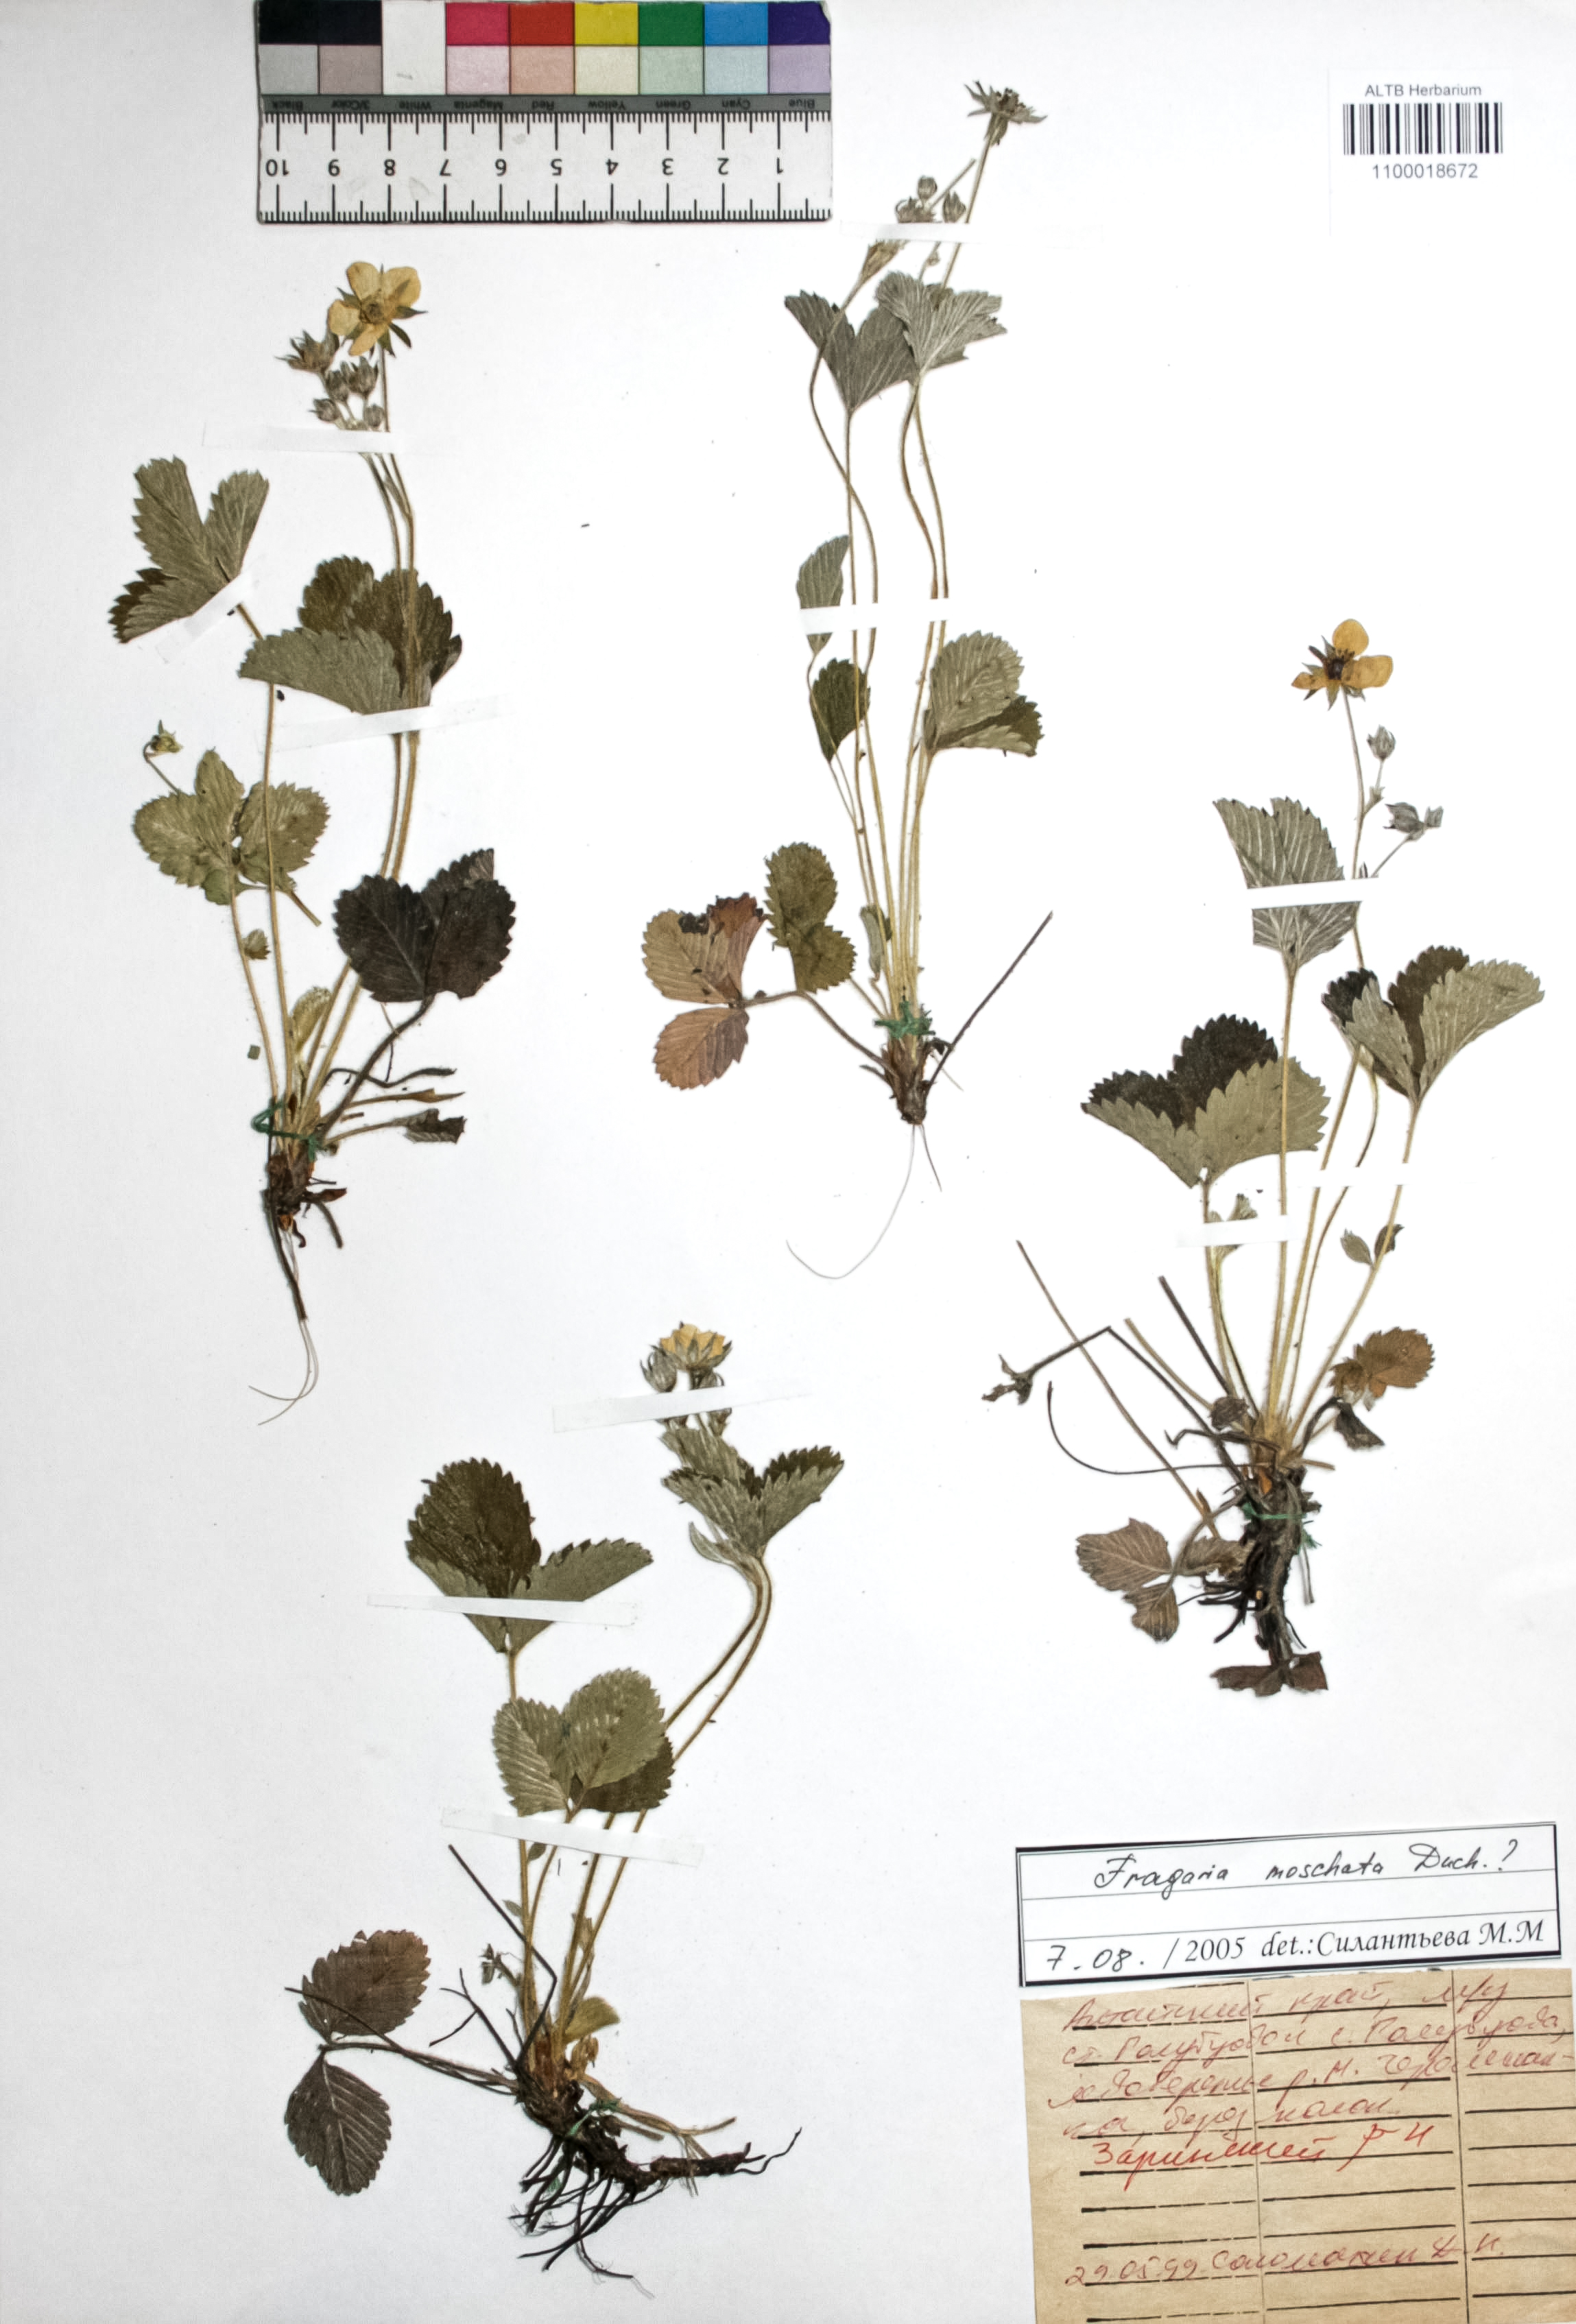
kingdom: Plantae
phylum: Tracheophyta
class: Magnoliopsida
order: Rosales
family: Rosaceae
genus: Fragaria
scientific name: Fragaria moschata
